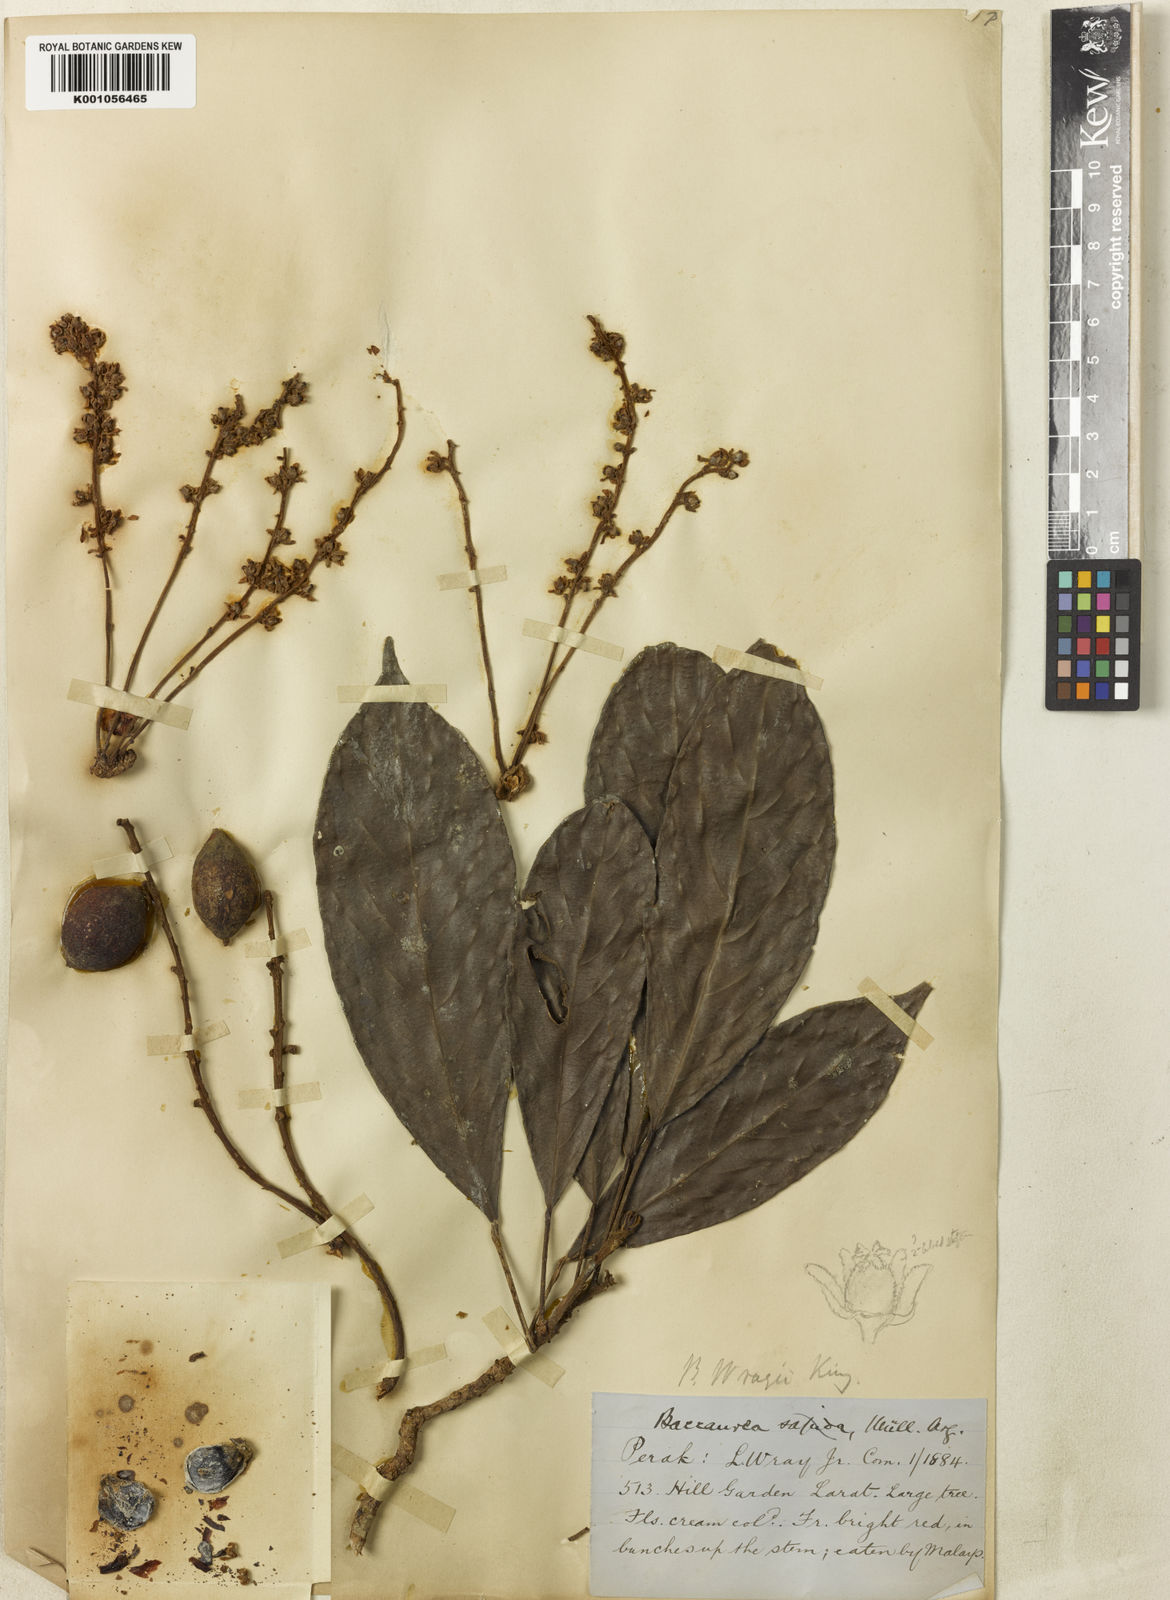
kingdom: Plantae
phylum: Tracheophyta
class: Magnoliopsida
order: Malpighiales
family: Phyllanthaceae
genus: Baccaurea
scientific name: Baccaurea ramiflora
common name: Baccaurea
